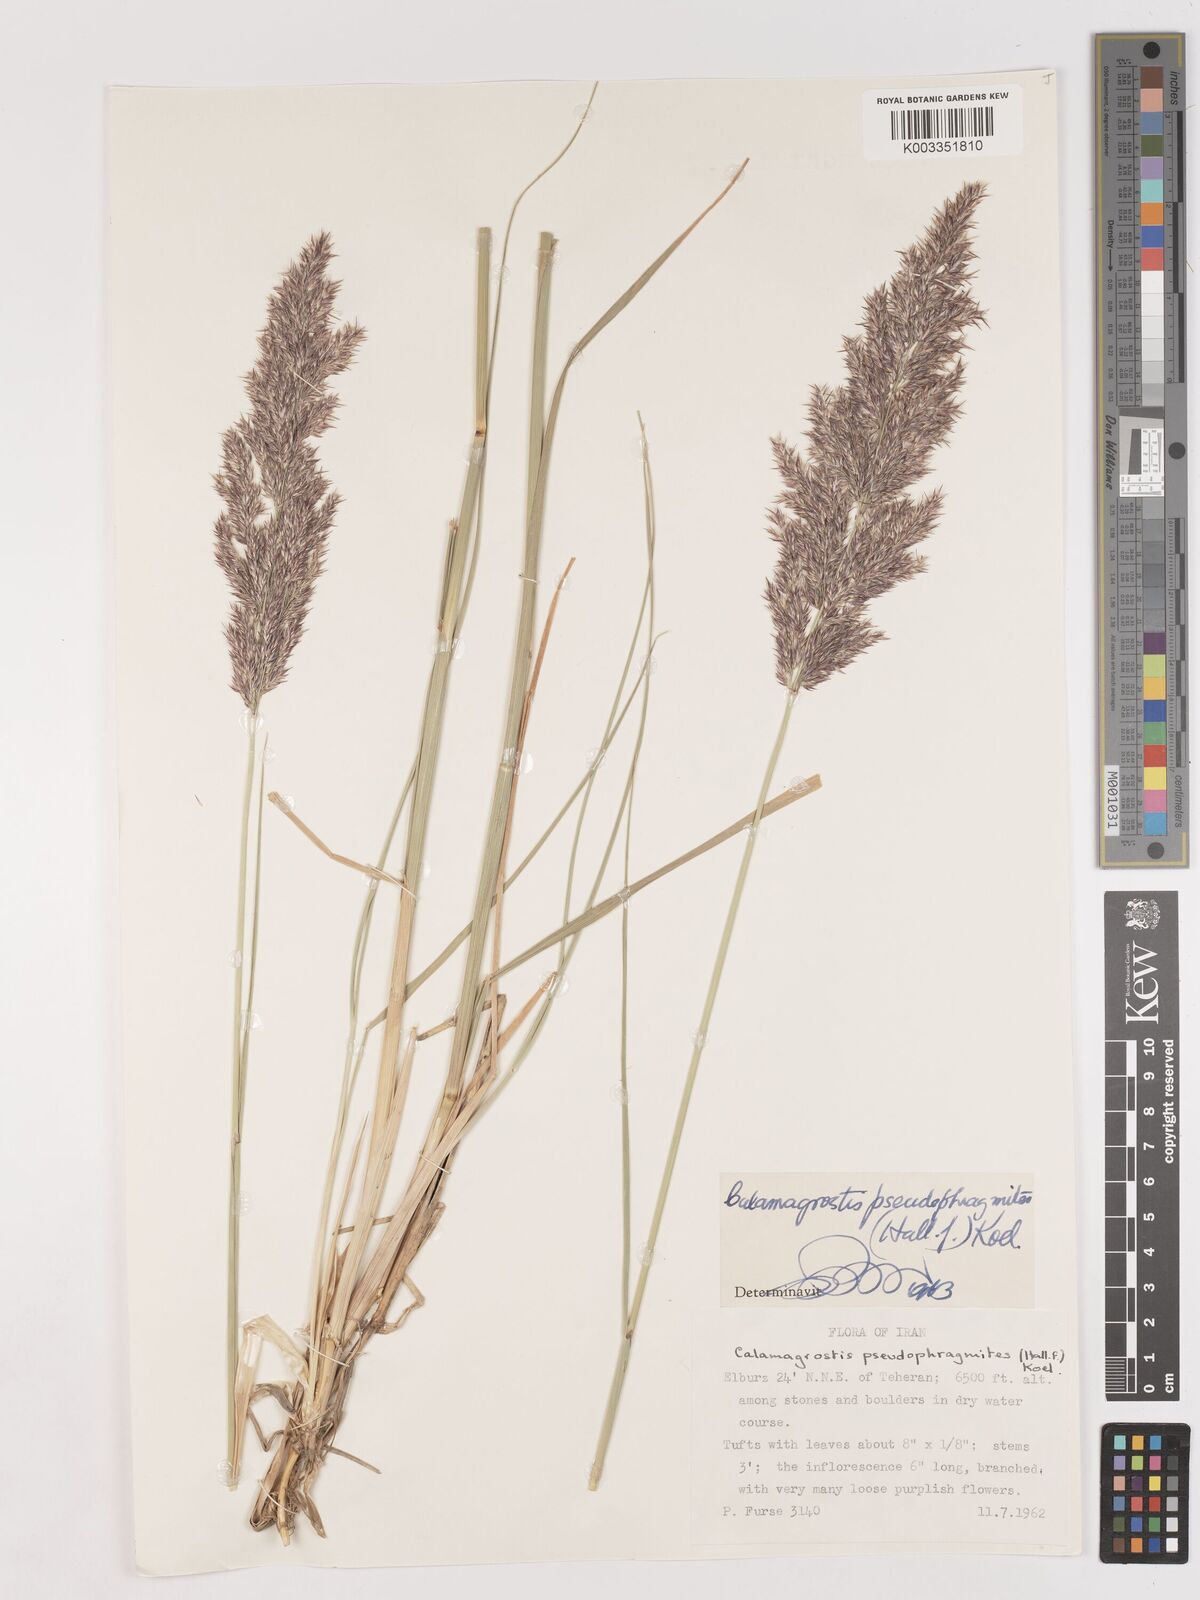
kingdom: Plantae
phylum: Tracheophyta
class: Liliopsida
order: Poales
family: Poaceae
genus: Calamagrostis
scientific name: Calamagrostis pseudophragmites
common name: Coastal small-reed
